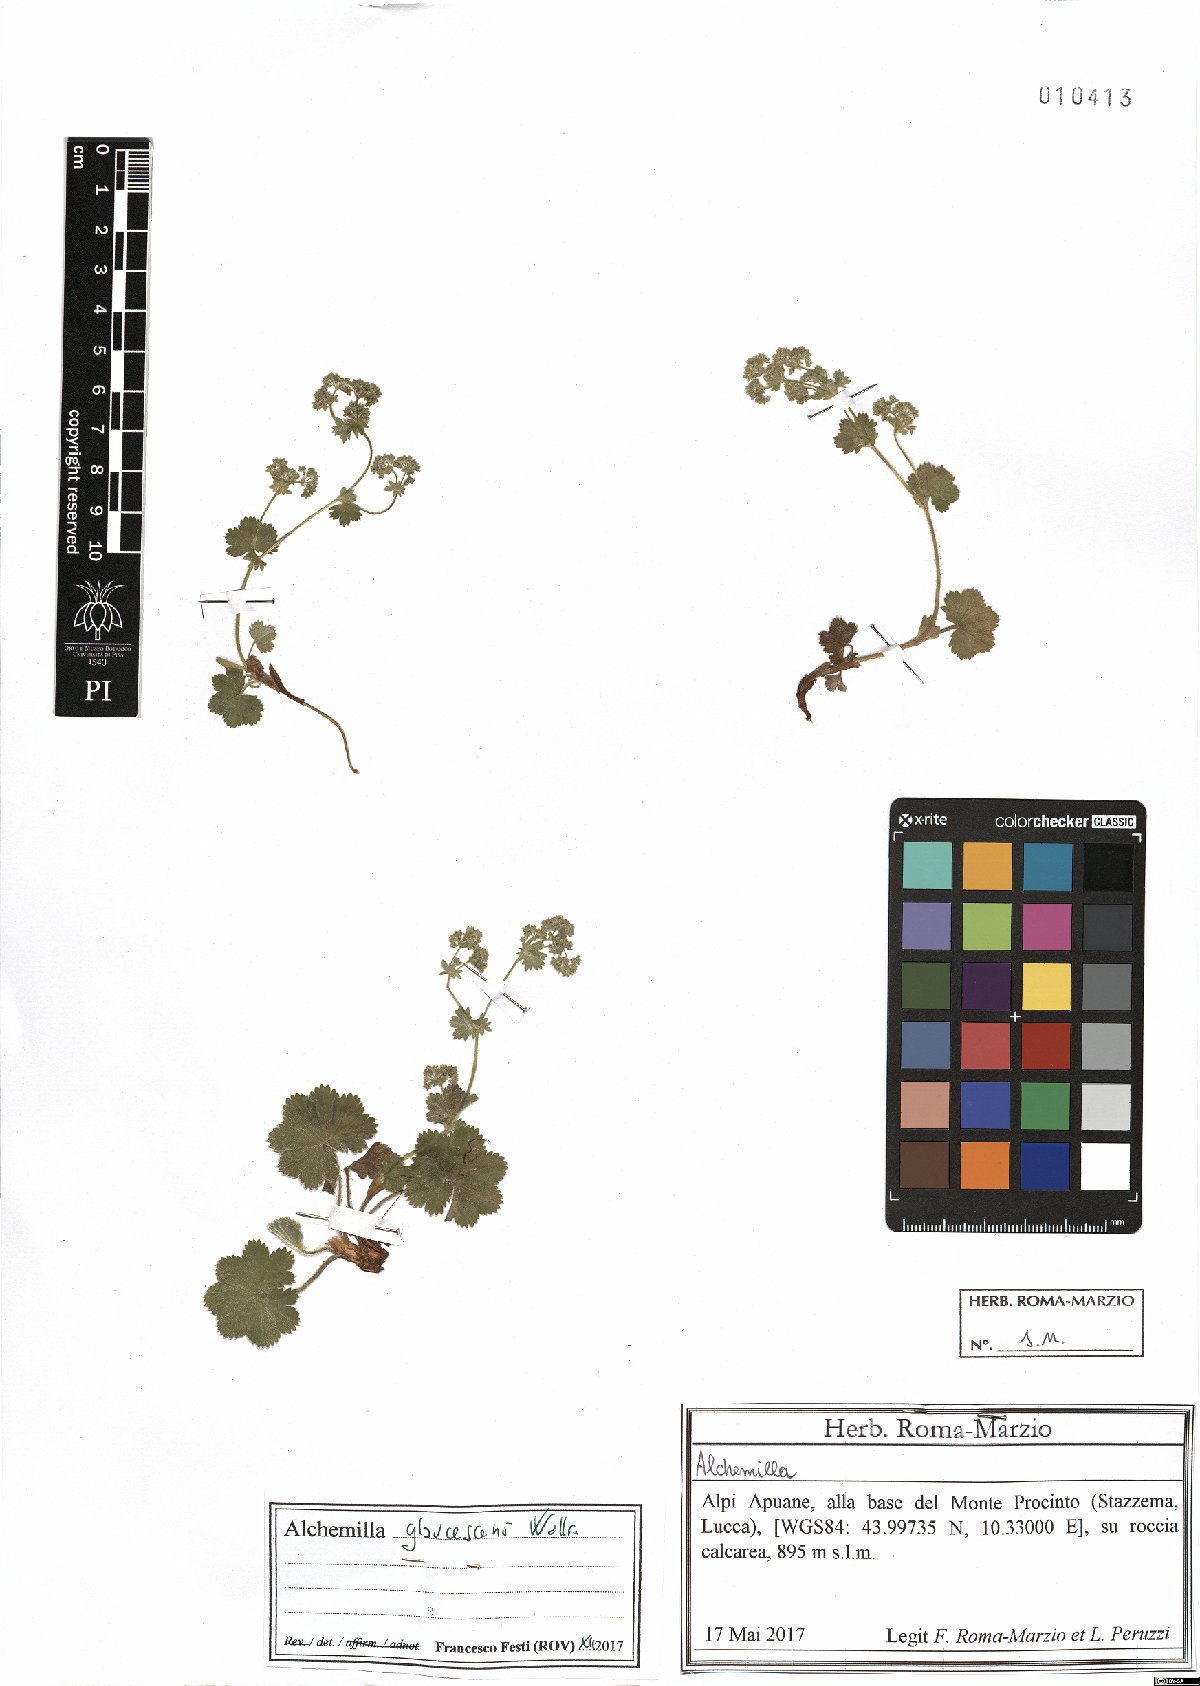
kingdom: Plantae
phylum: Tracheophyta
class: Magnoliopsida
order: Rosales
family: Rosaceae
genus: Alchemilla
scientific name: Alchemilla glaucescens
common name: Silky lady's mantle
